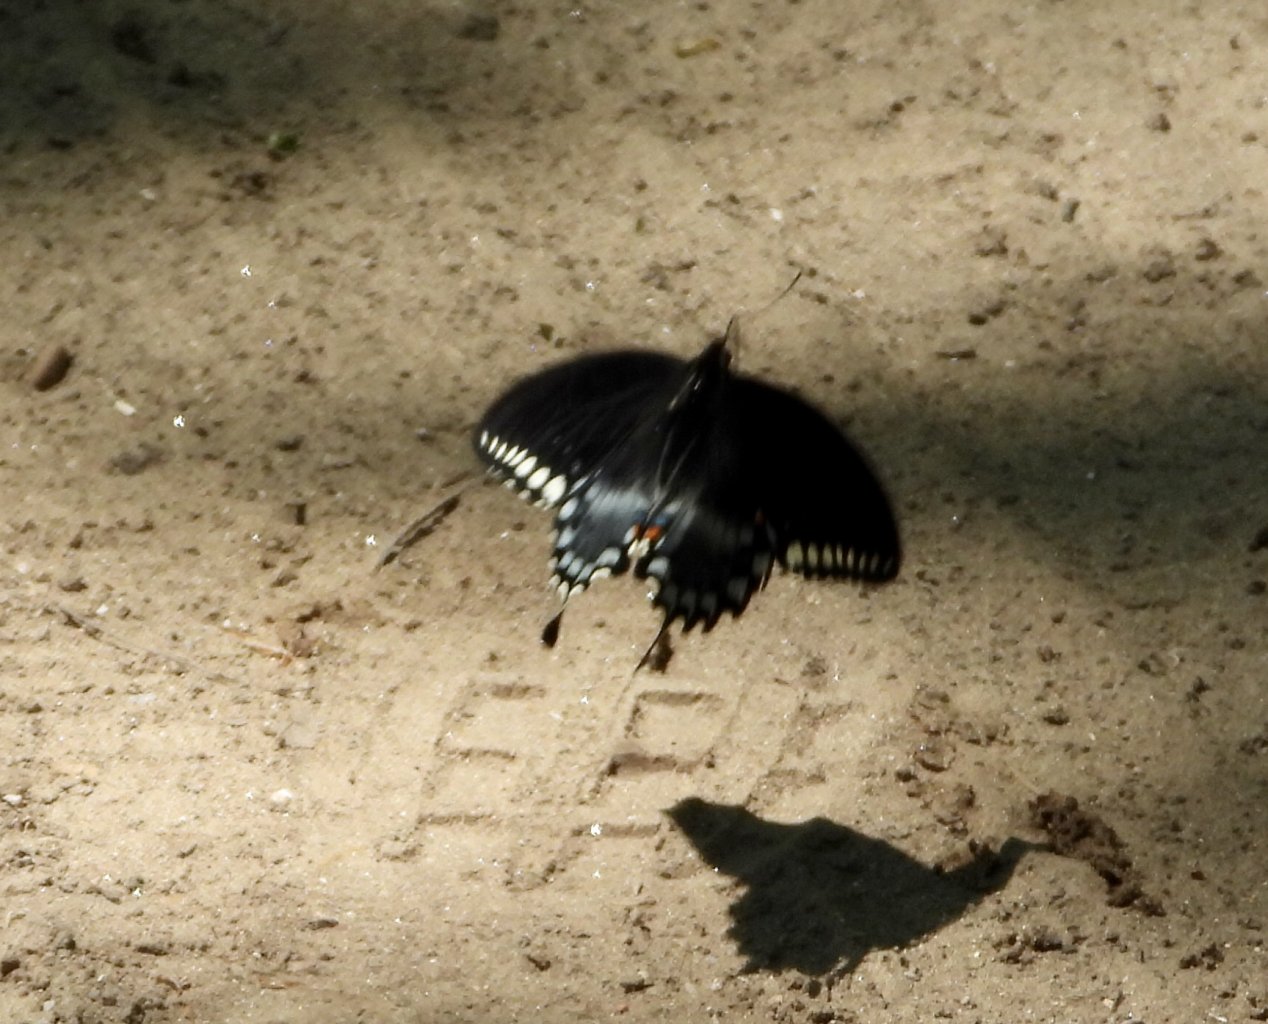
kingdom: Animalia
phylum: Arthropoda
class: Insecta
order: Lepidoptera
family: Papilionidae
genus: Pterourus
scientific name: Pterourus troilus
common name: Spicebush Swallowtail
